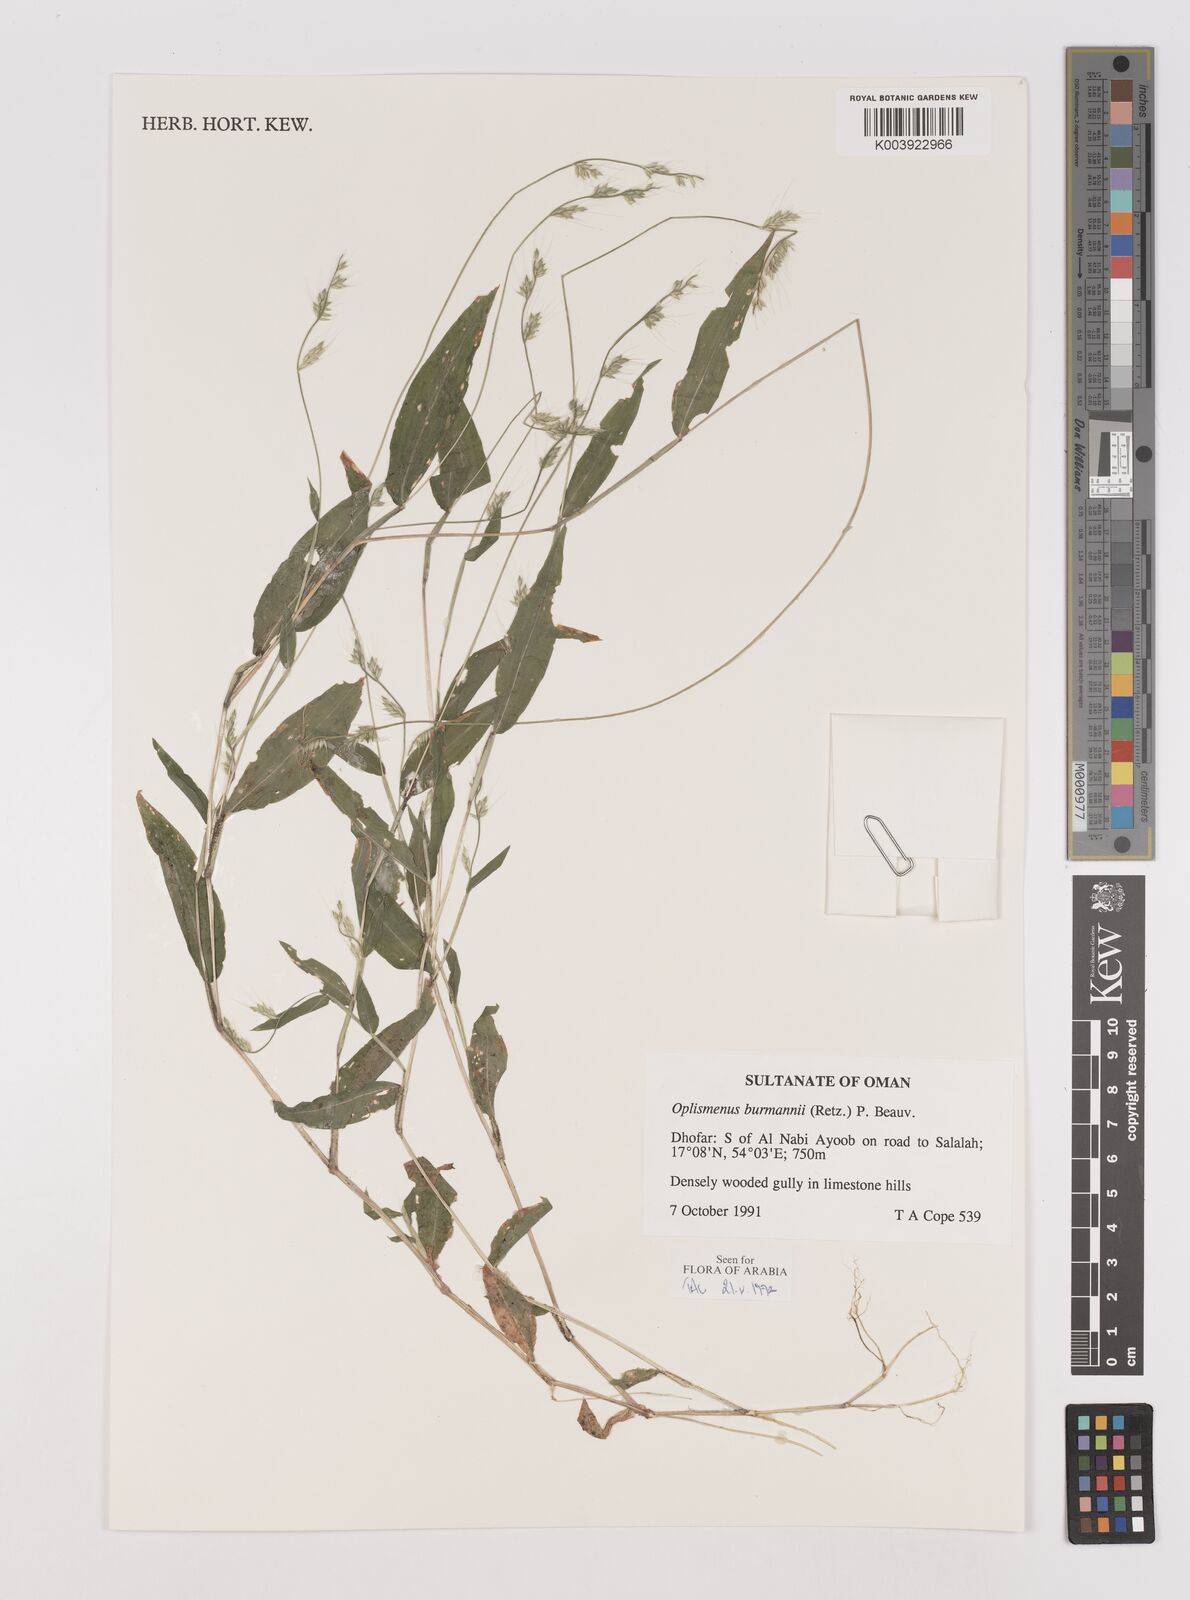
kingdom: Plantae
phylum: Tracheophyta
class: Liliopsida
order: Poales
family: Poaceae
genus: Oplismenus
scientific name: Oplismenus burmanni
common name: Burmann's basketgrass
